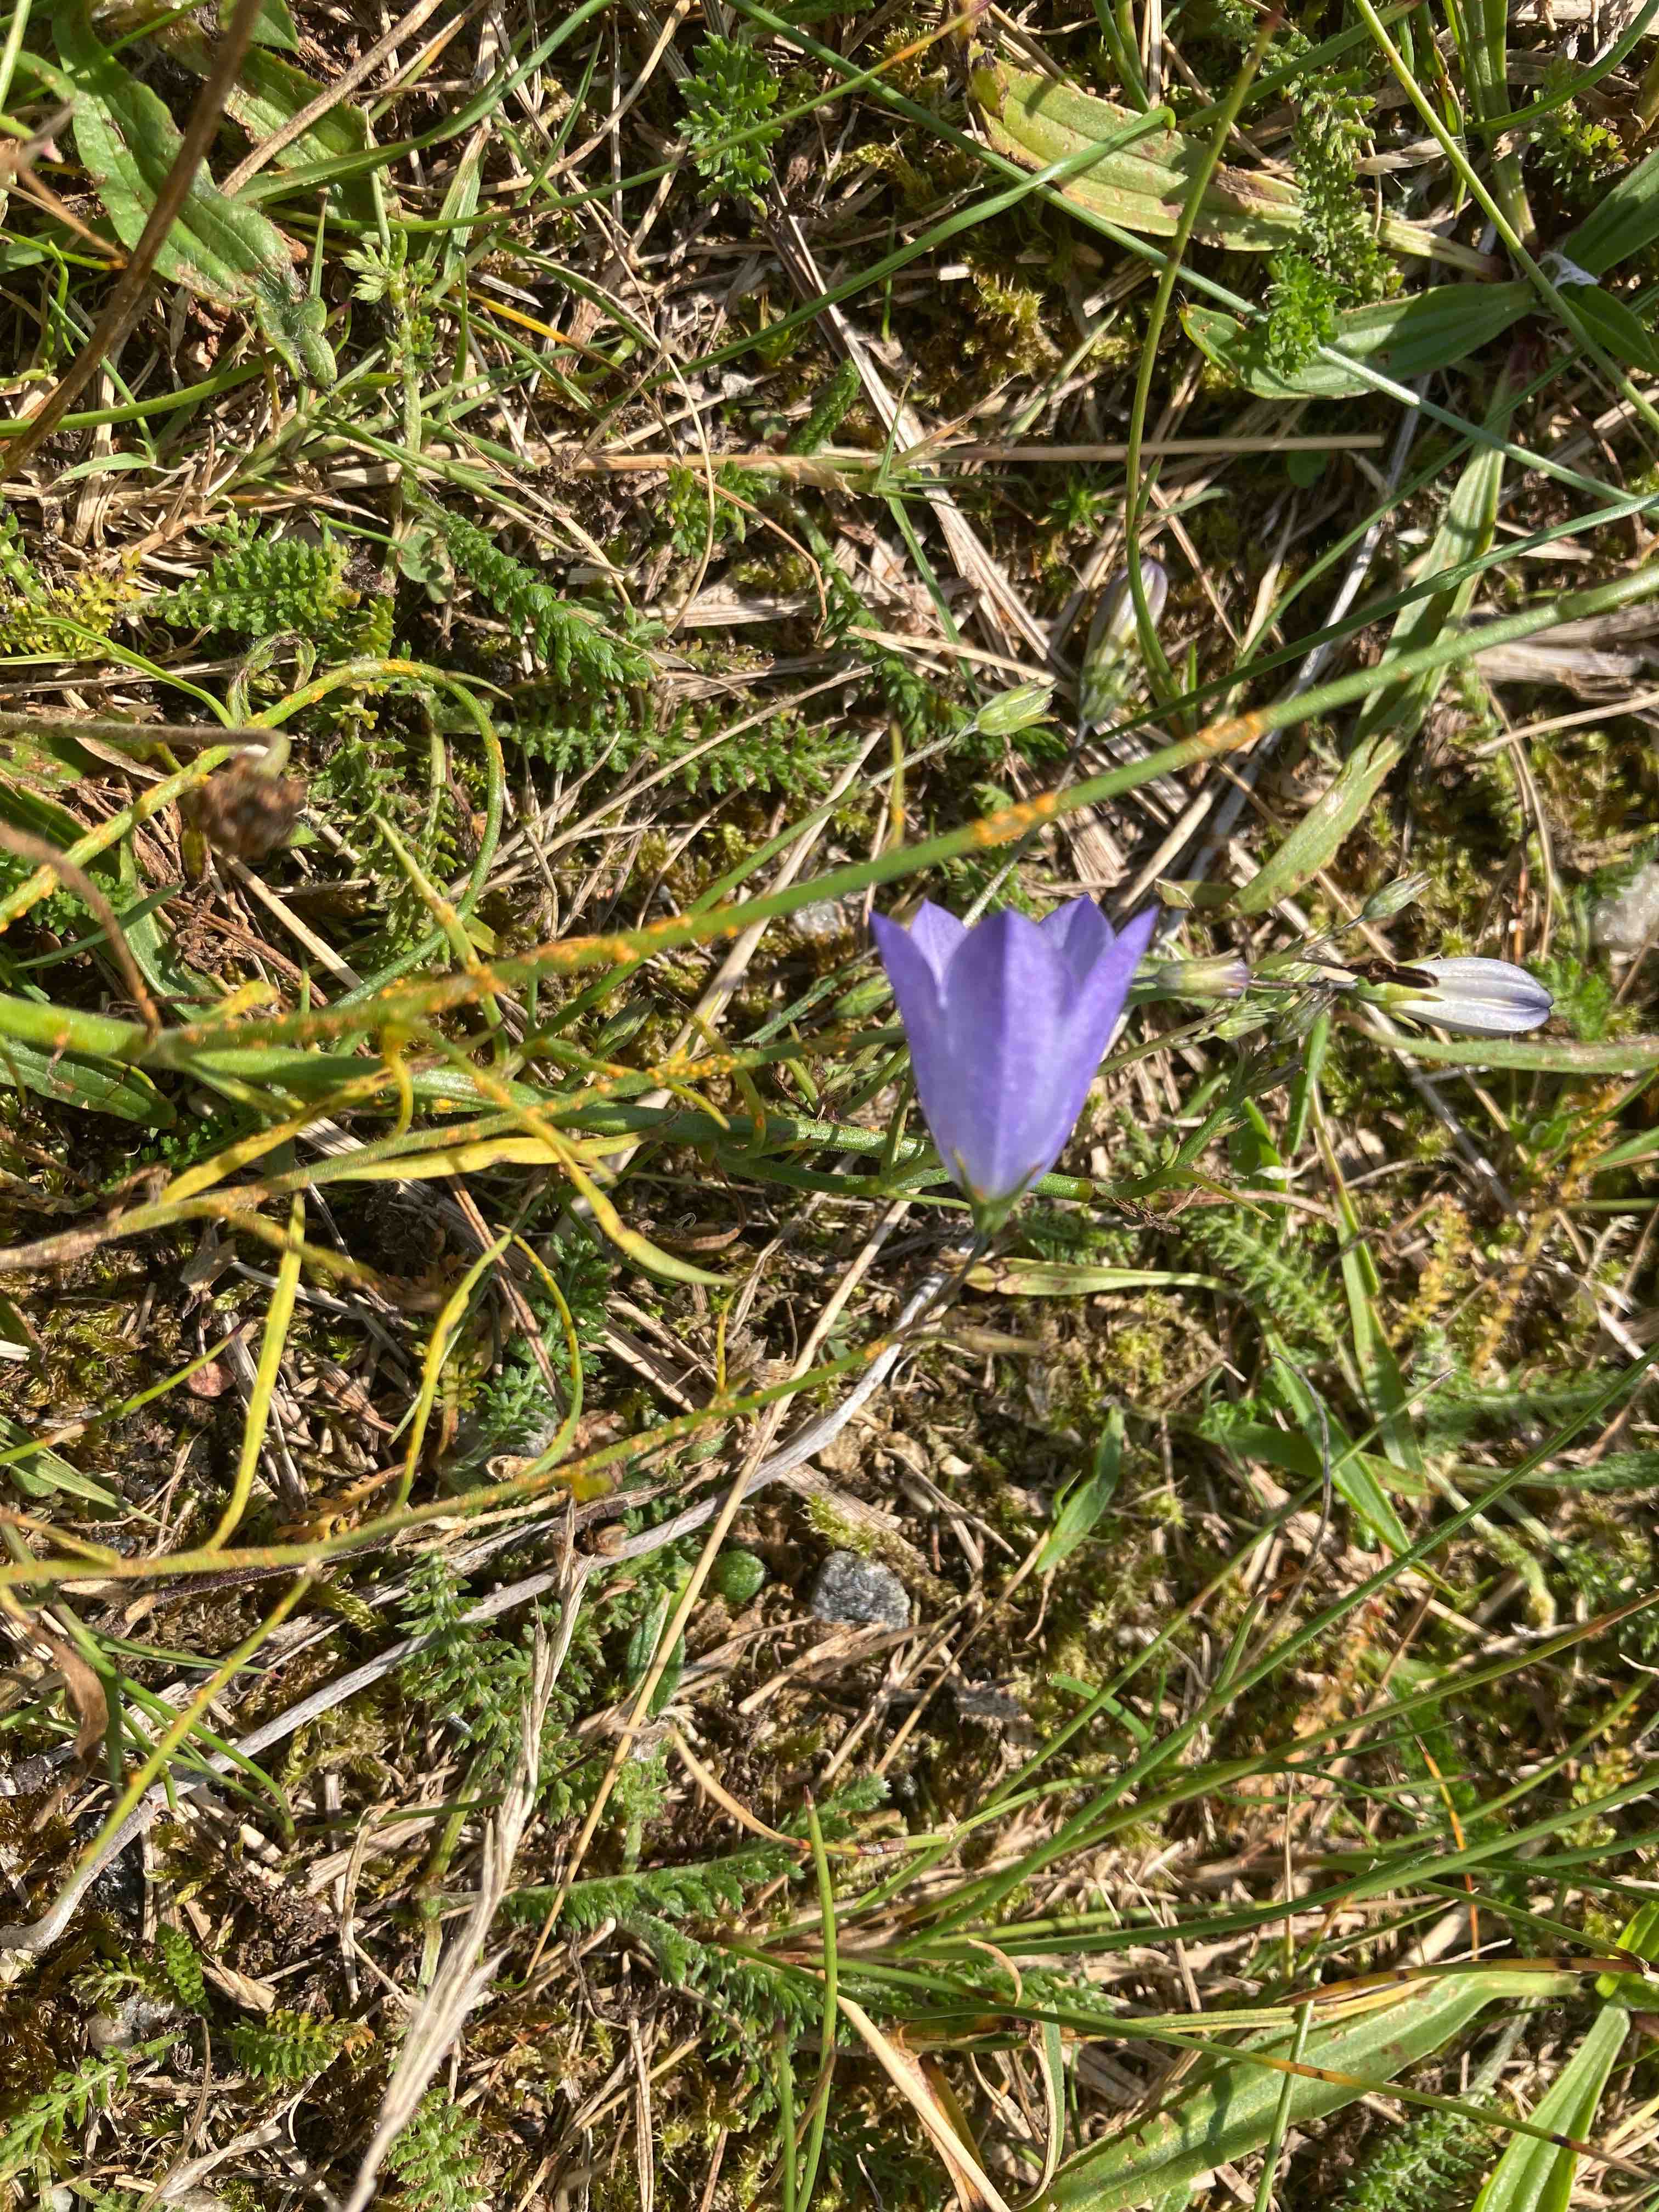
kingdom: Fungi
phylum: Basidiomycota
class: Pucciniomycetes
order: Pucciniales
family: Coleosporiaceae
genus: Coleosporium
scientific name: Coleosporium tussilaginis
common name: almindelig fyrrenålerust
